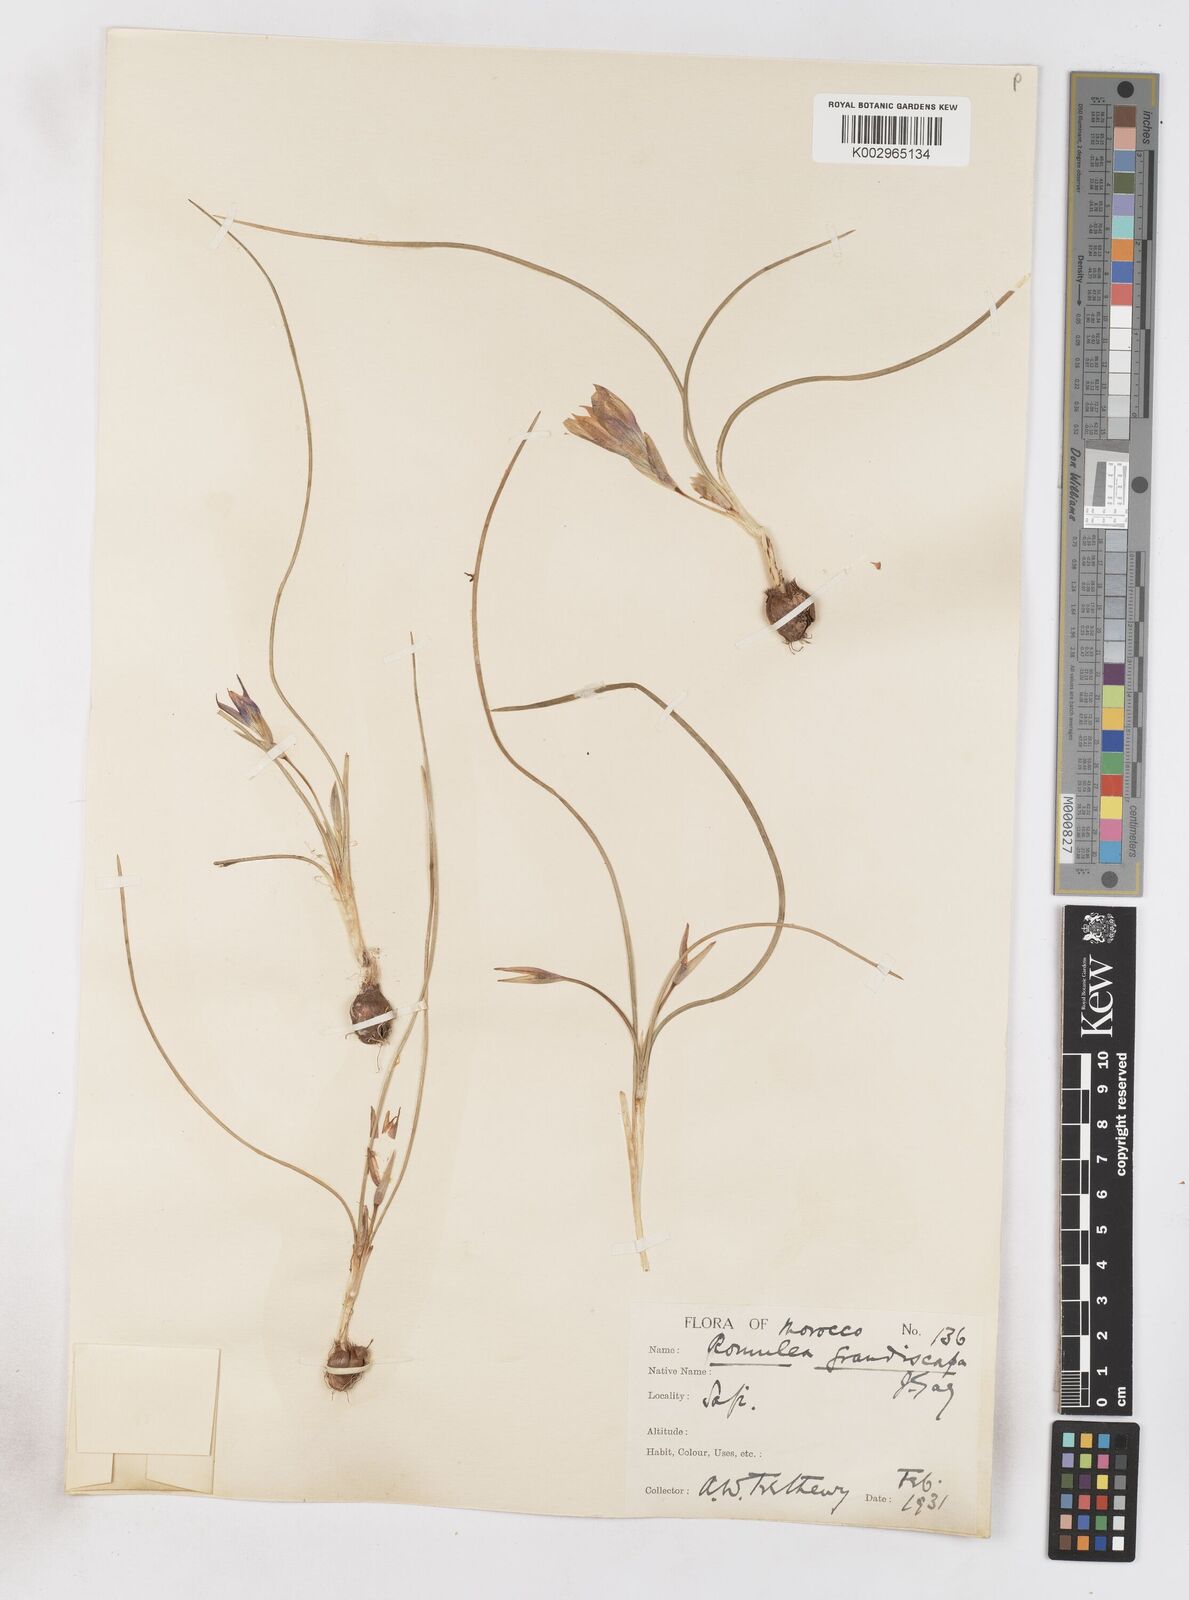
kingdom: Plantae
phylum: Tracheophyta
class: Liliopsida
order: Asparagales
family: Iridaceae
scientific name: Iridaceae
